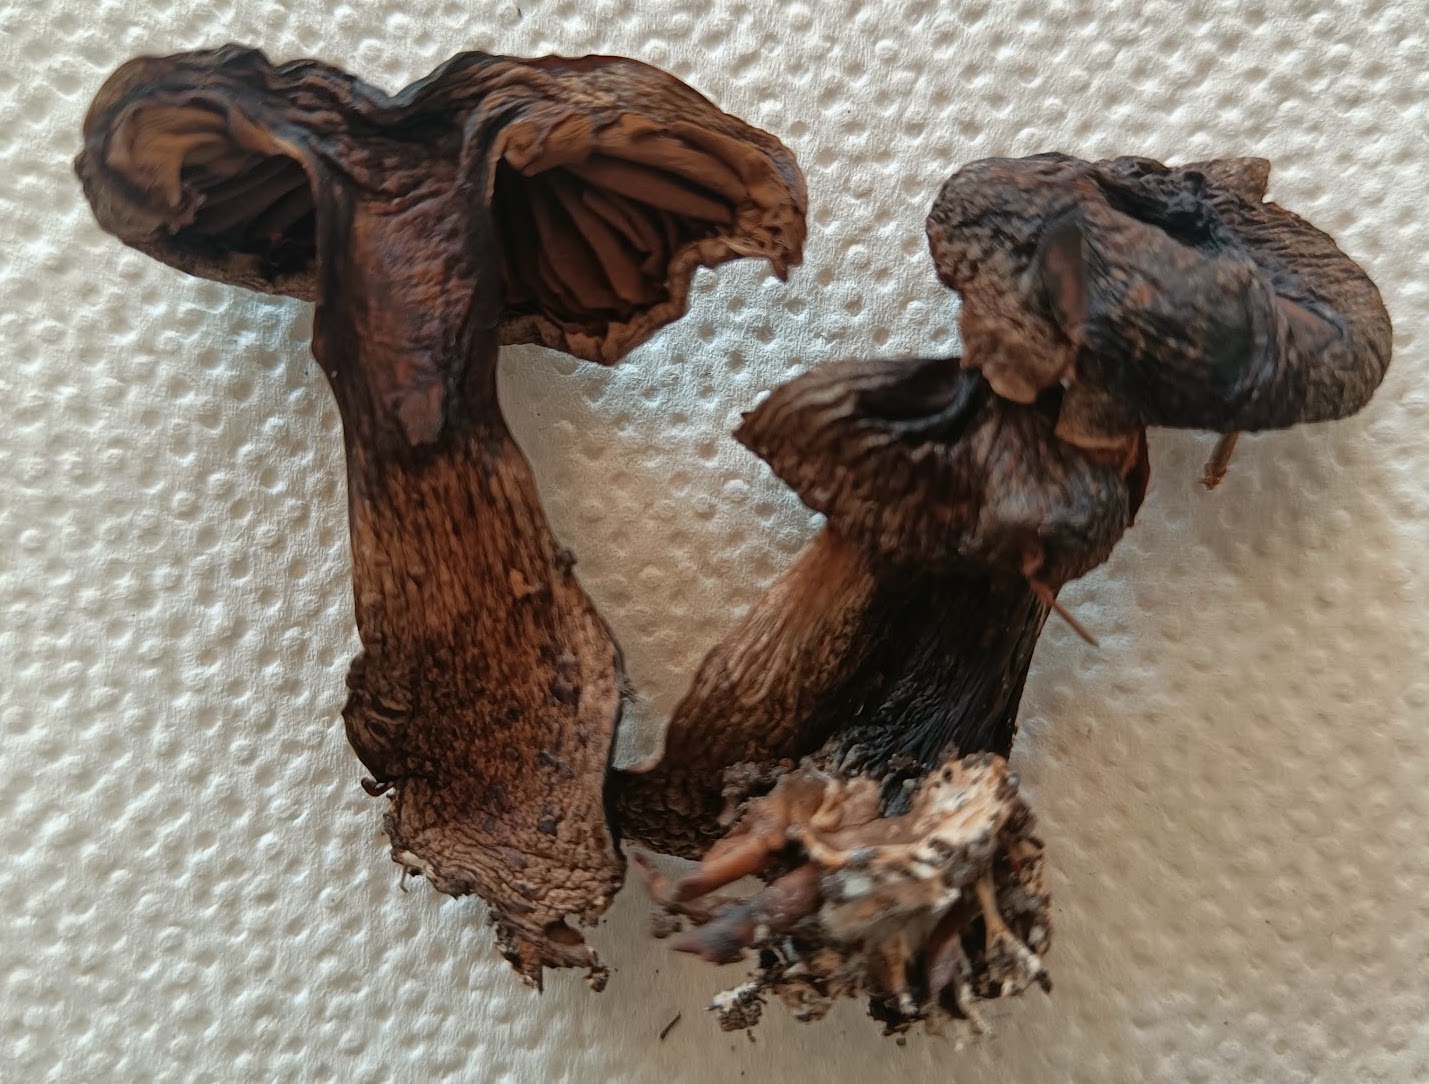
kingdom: Fungi
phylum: Basidiomycota
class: Agaricomycetes
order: Agaricales
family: Cortinariaceae
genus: Cortinarius
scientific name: Cortinarius sociatus
